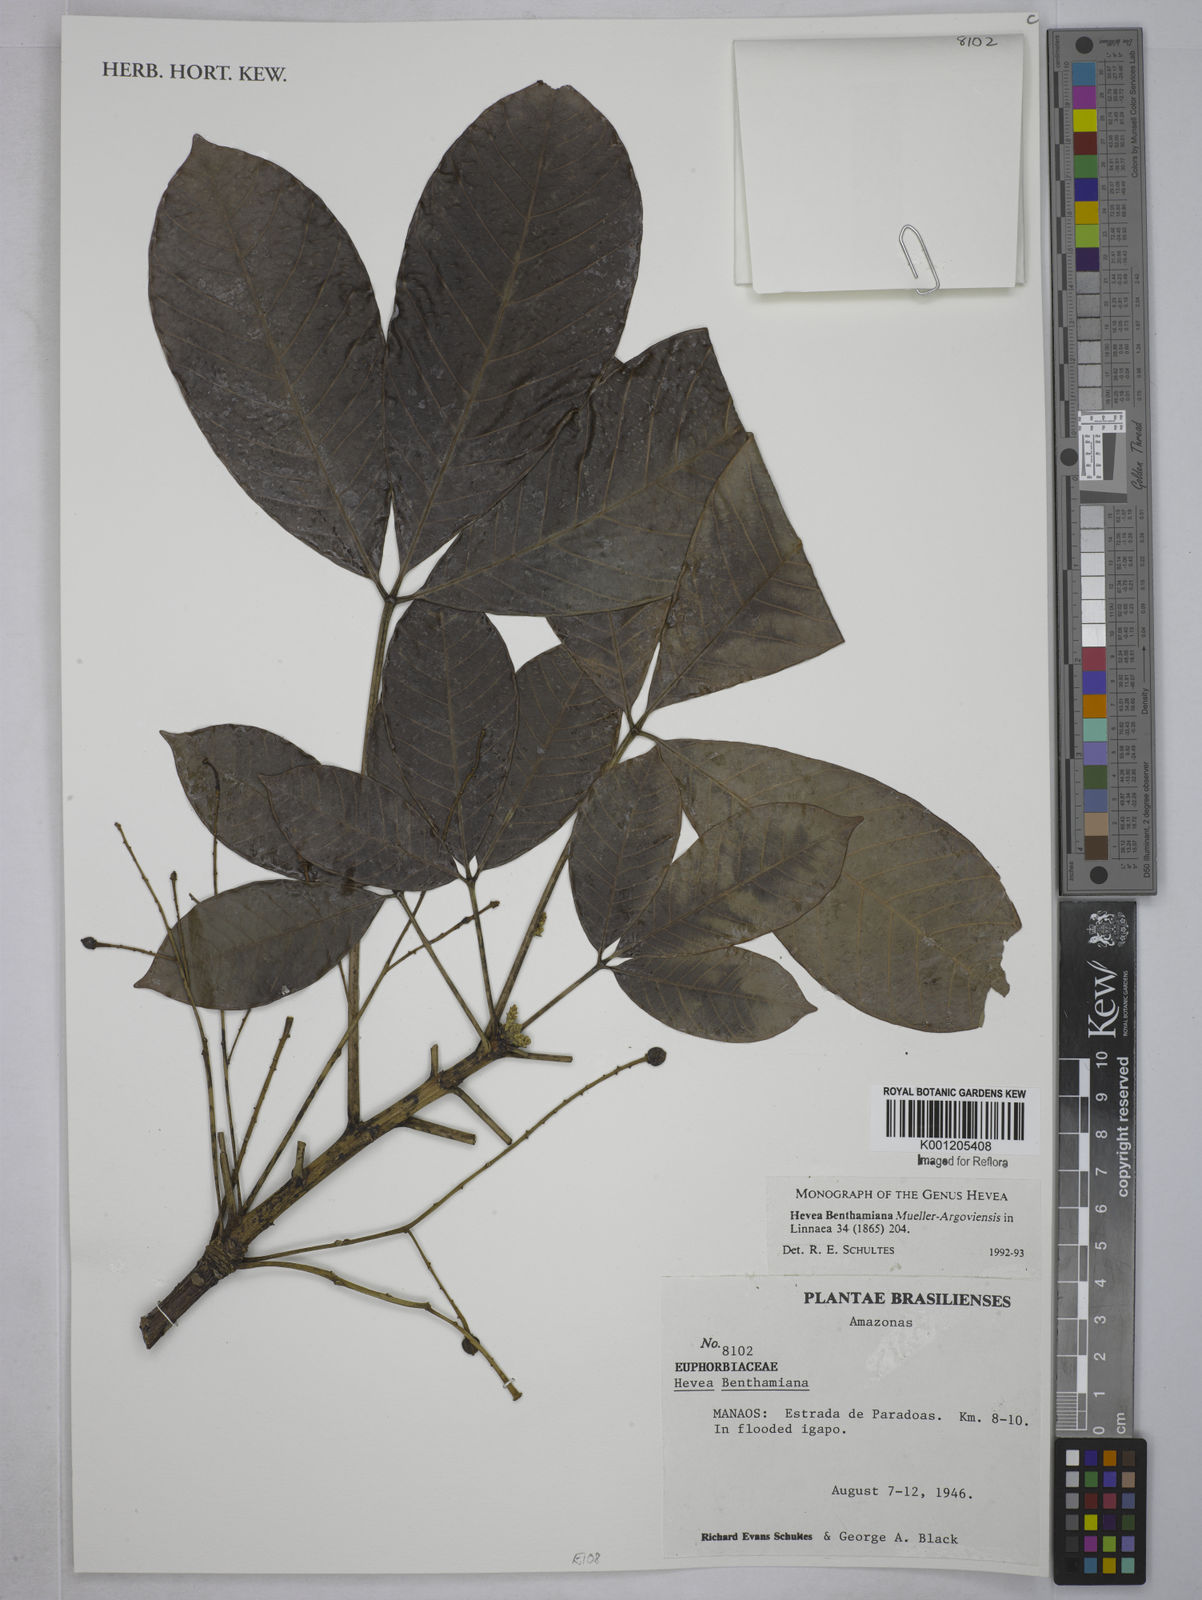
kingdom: Plantae
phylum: Tracheophyta
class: Magnoliopsida
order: Malpighiales
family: Euphorbiaceae
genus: Hevea
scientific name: Hevea
